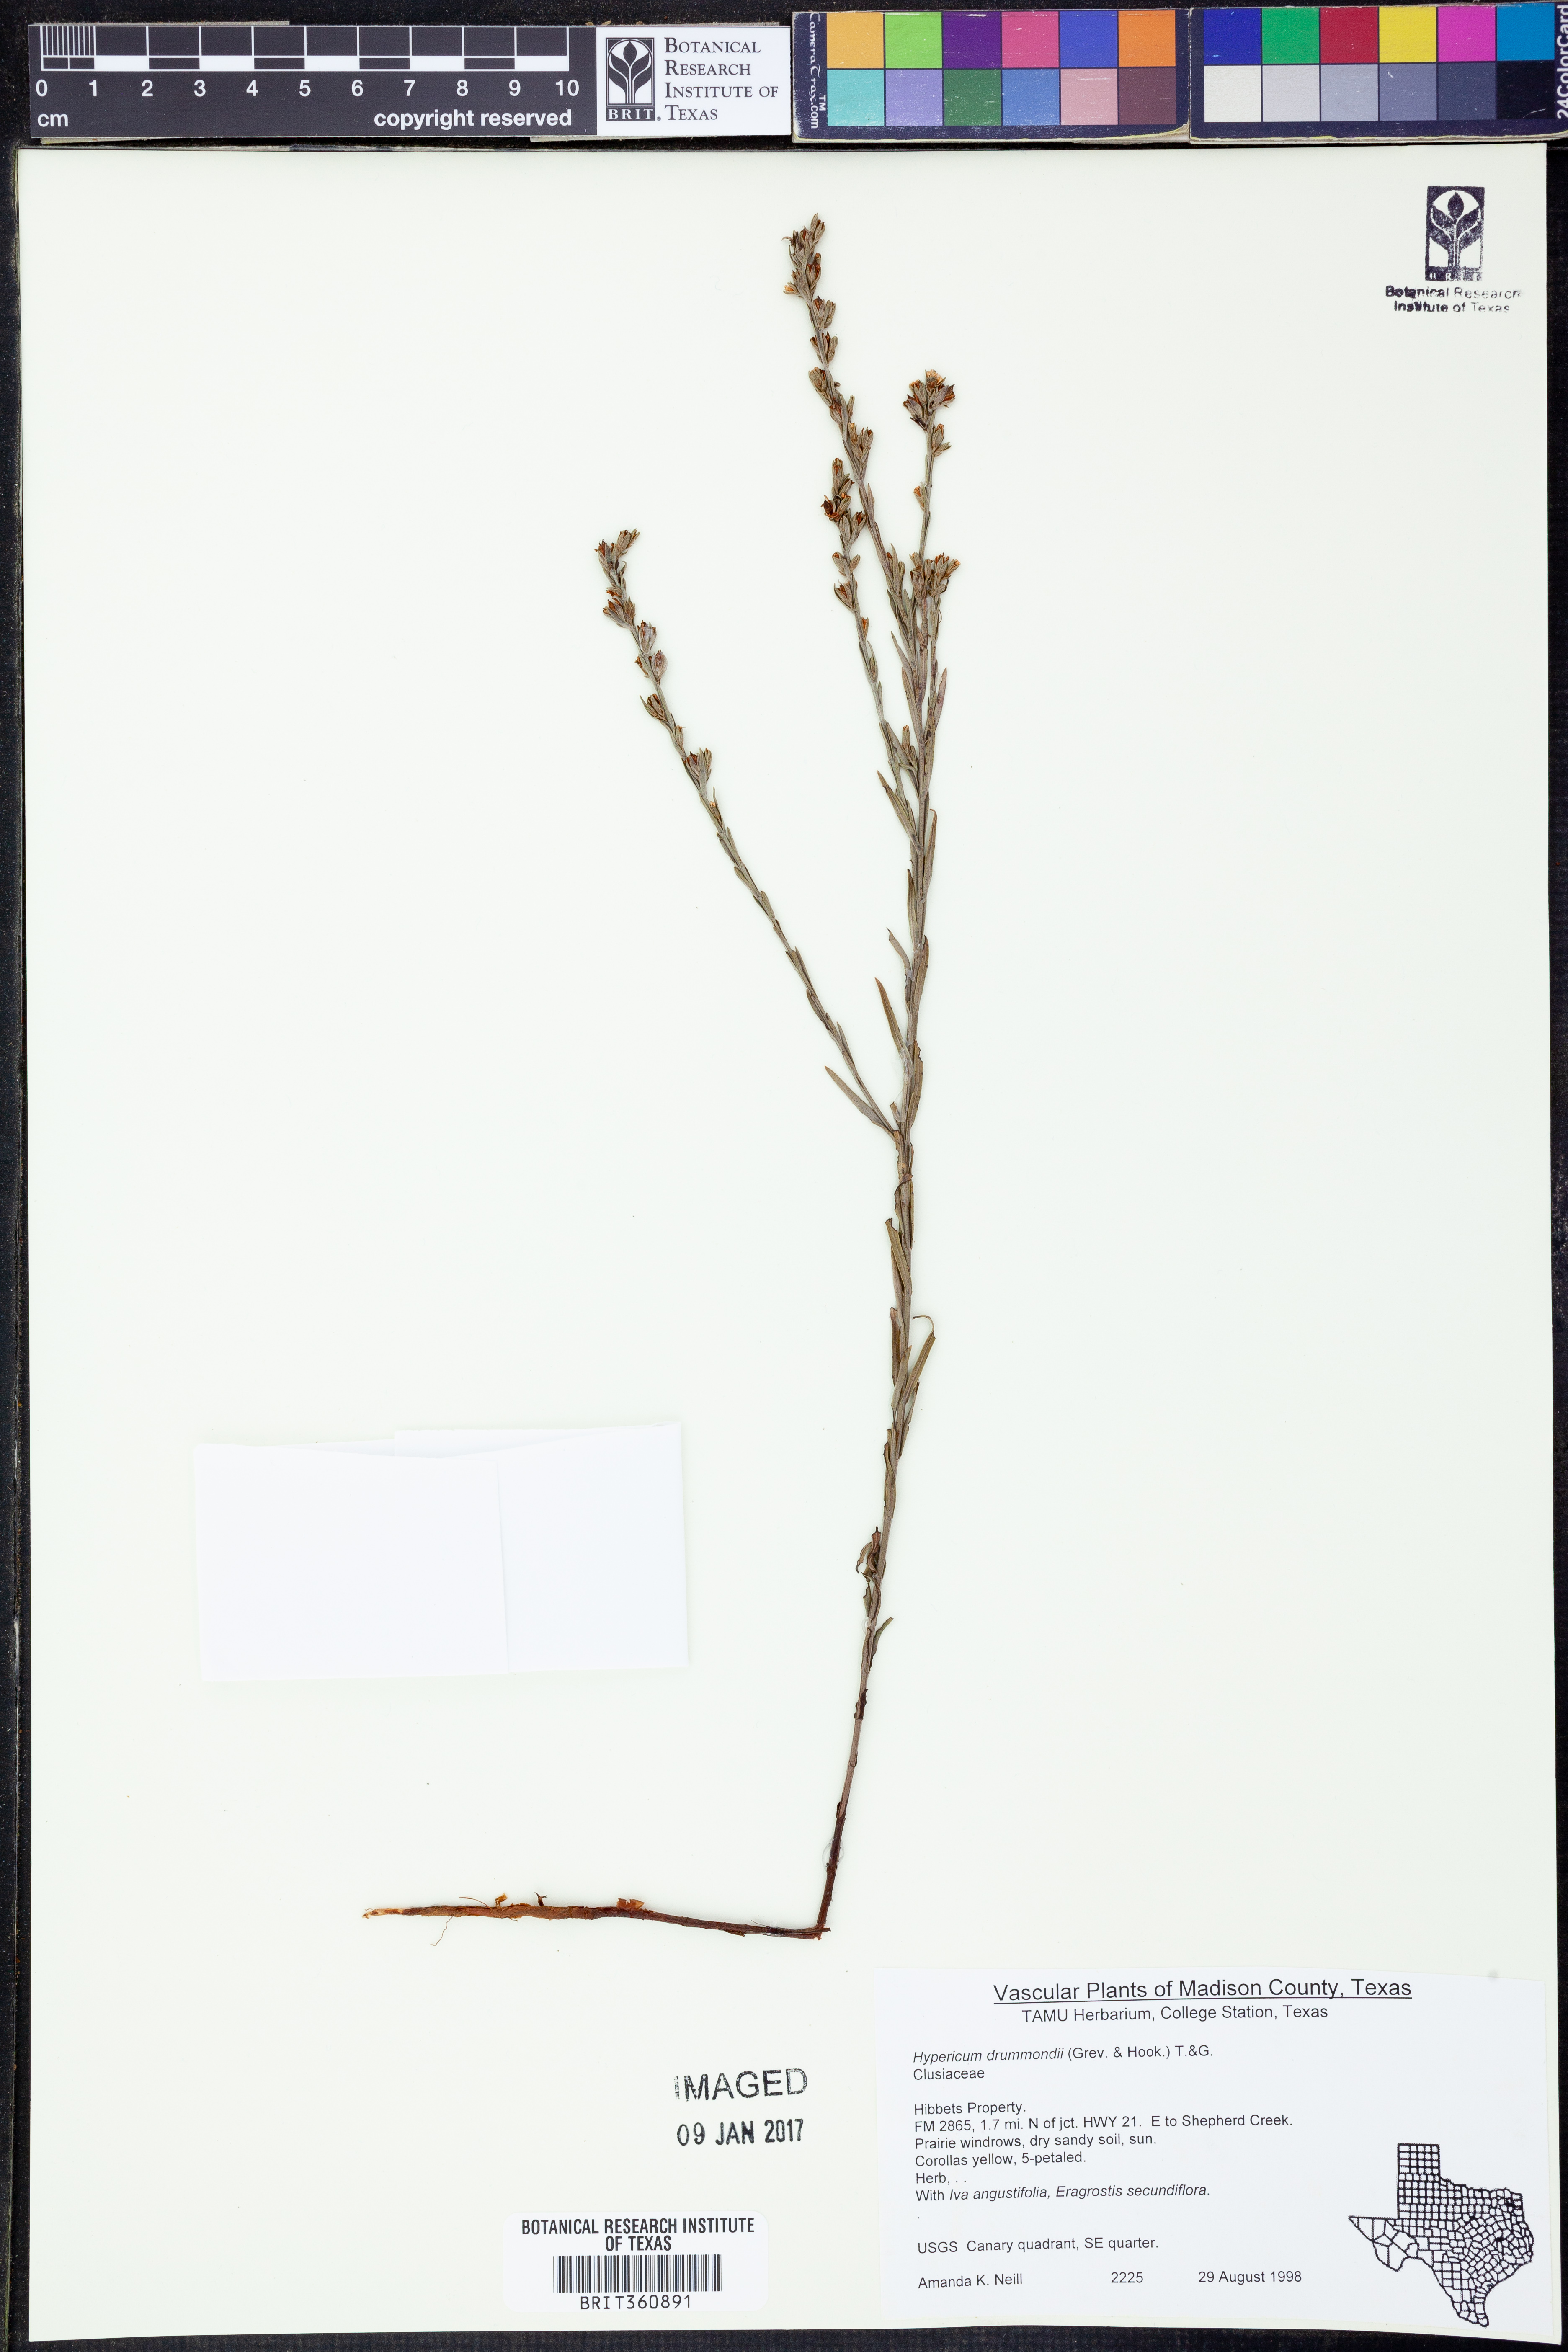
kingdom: Plantae
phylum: Tracheophyta
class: Magnoliopsida
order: Malpighiales
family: Hypericaceae
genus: Hypericum
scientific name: Hypericum drummondii
